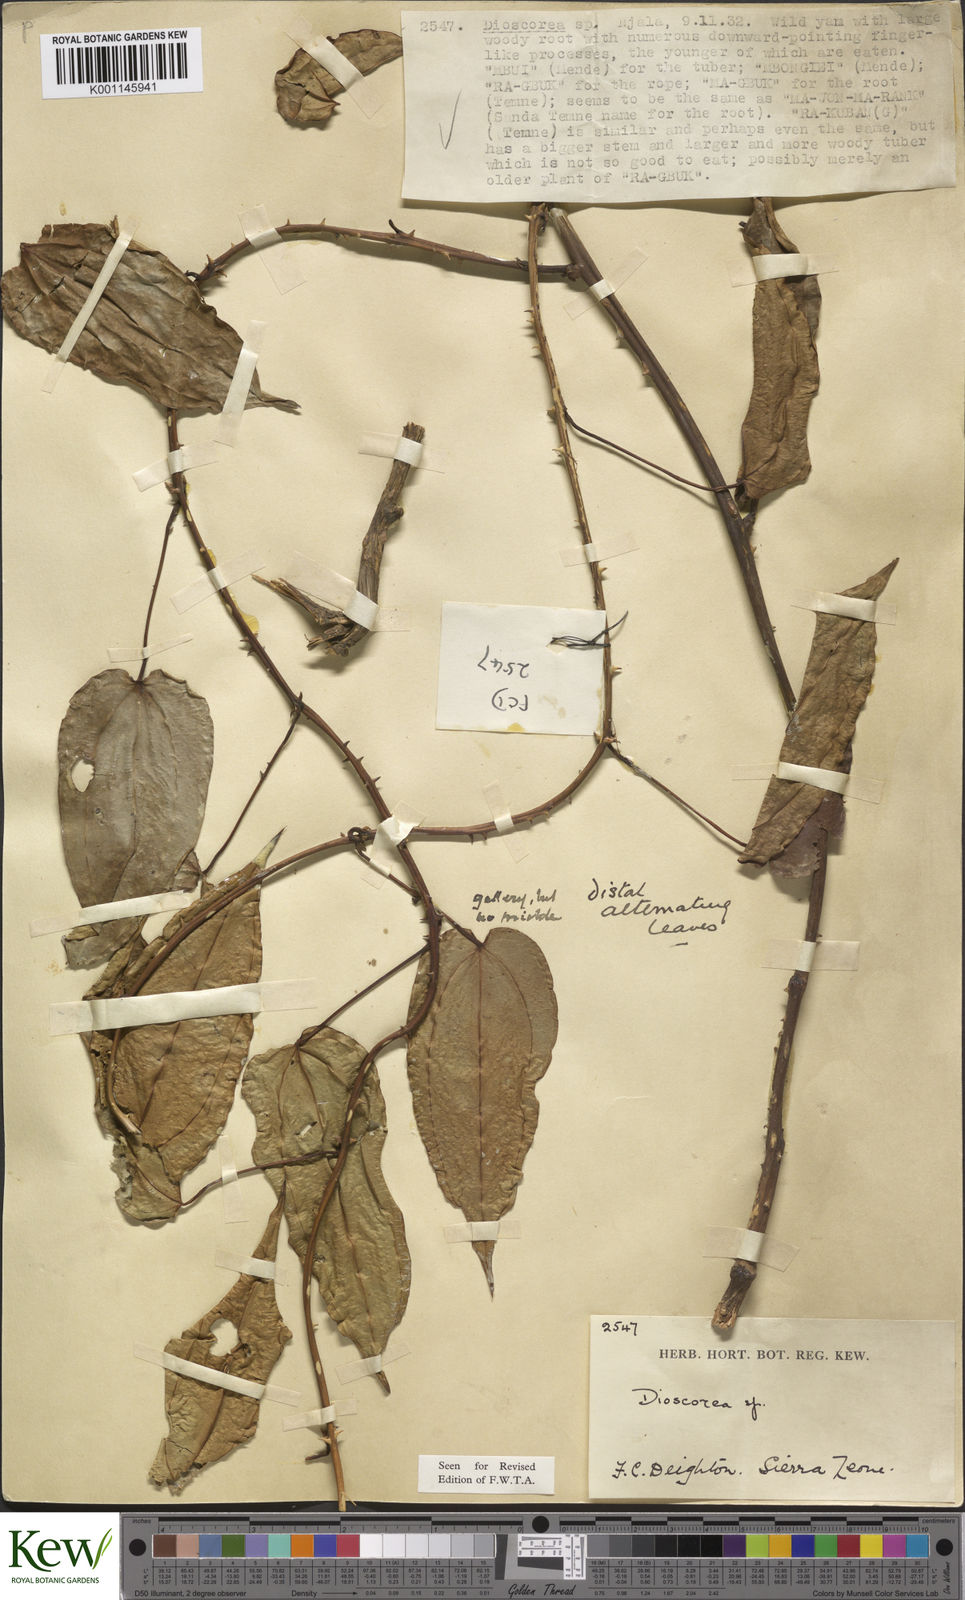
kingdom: Plantae
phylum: Tracheophyta
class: Liliopsida
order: Dioscoreales
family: Dioscoreaceae
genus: Dioscorea
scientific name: Dioscorea praehensilis
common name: Bush yam
